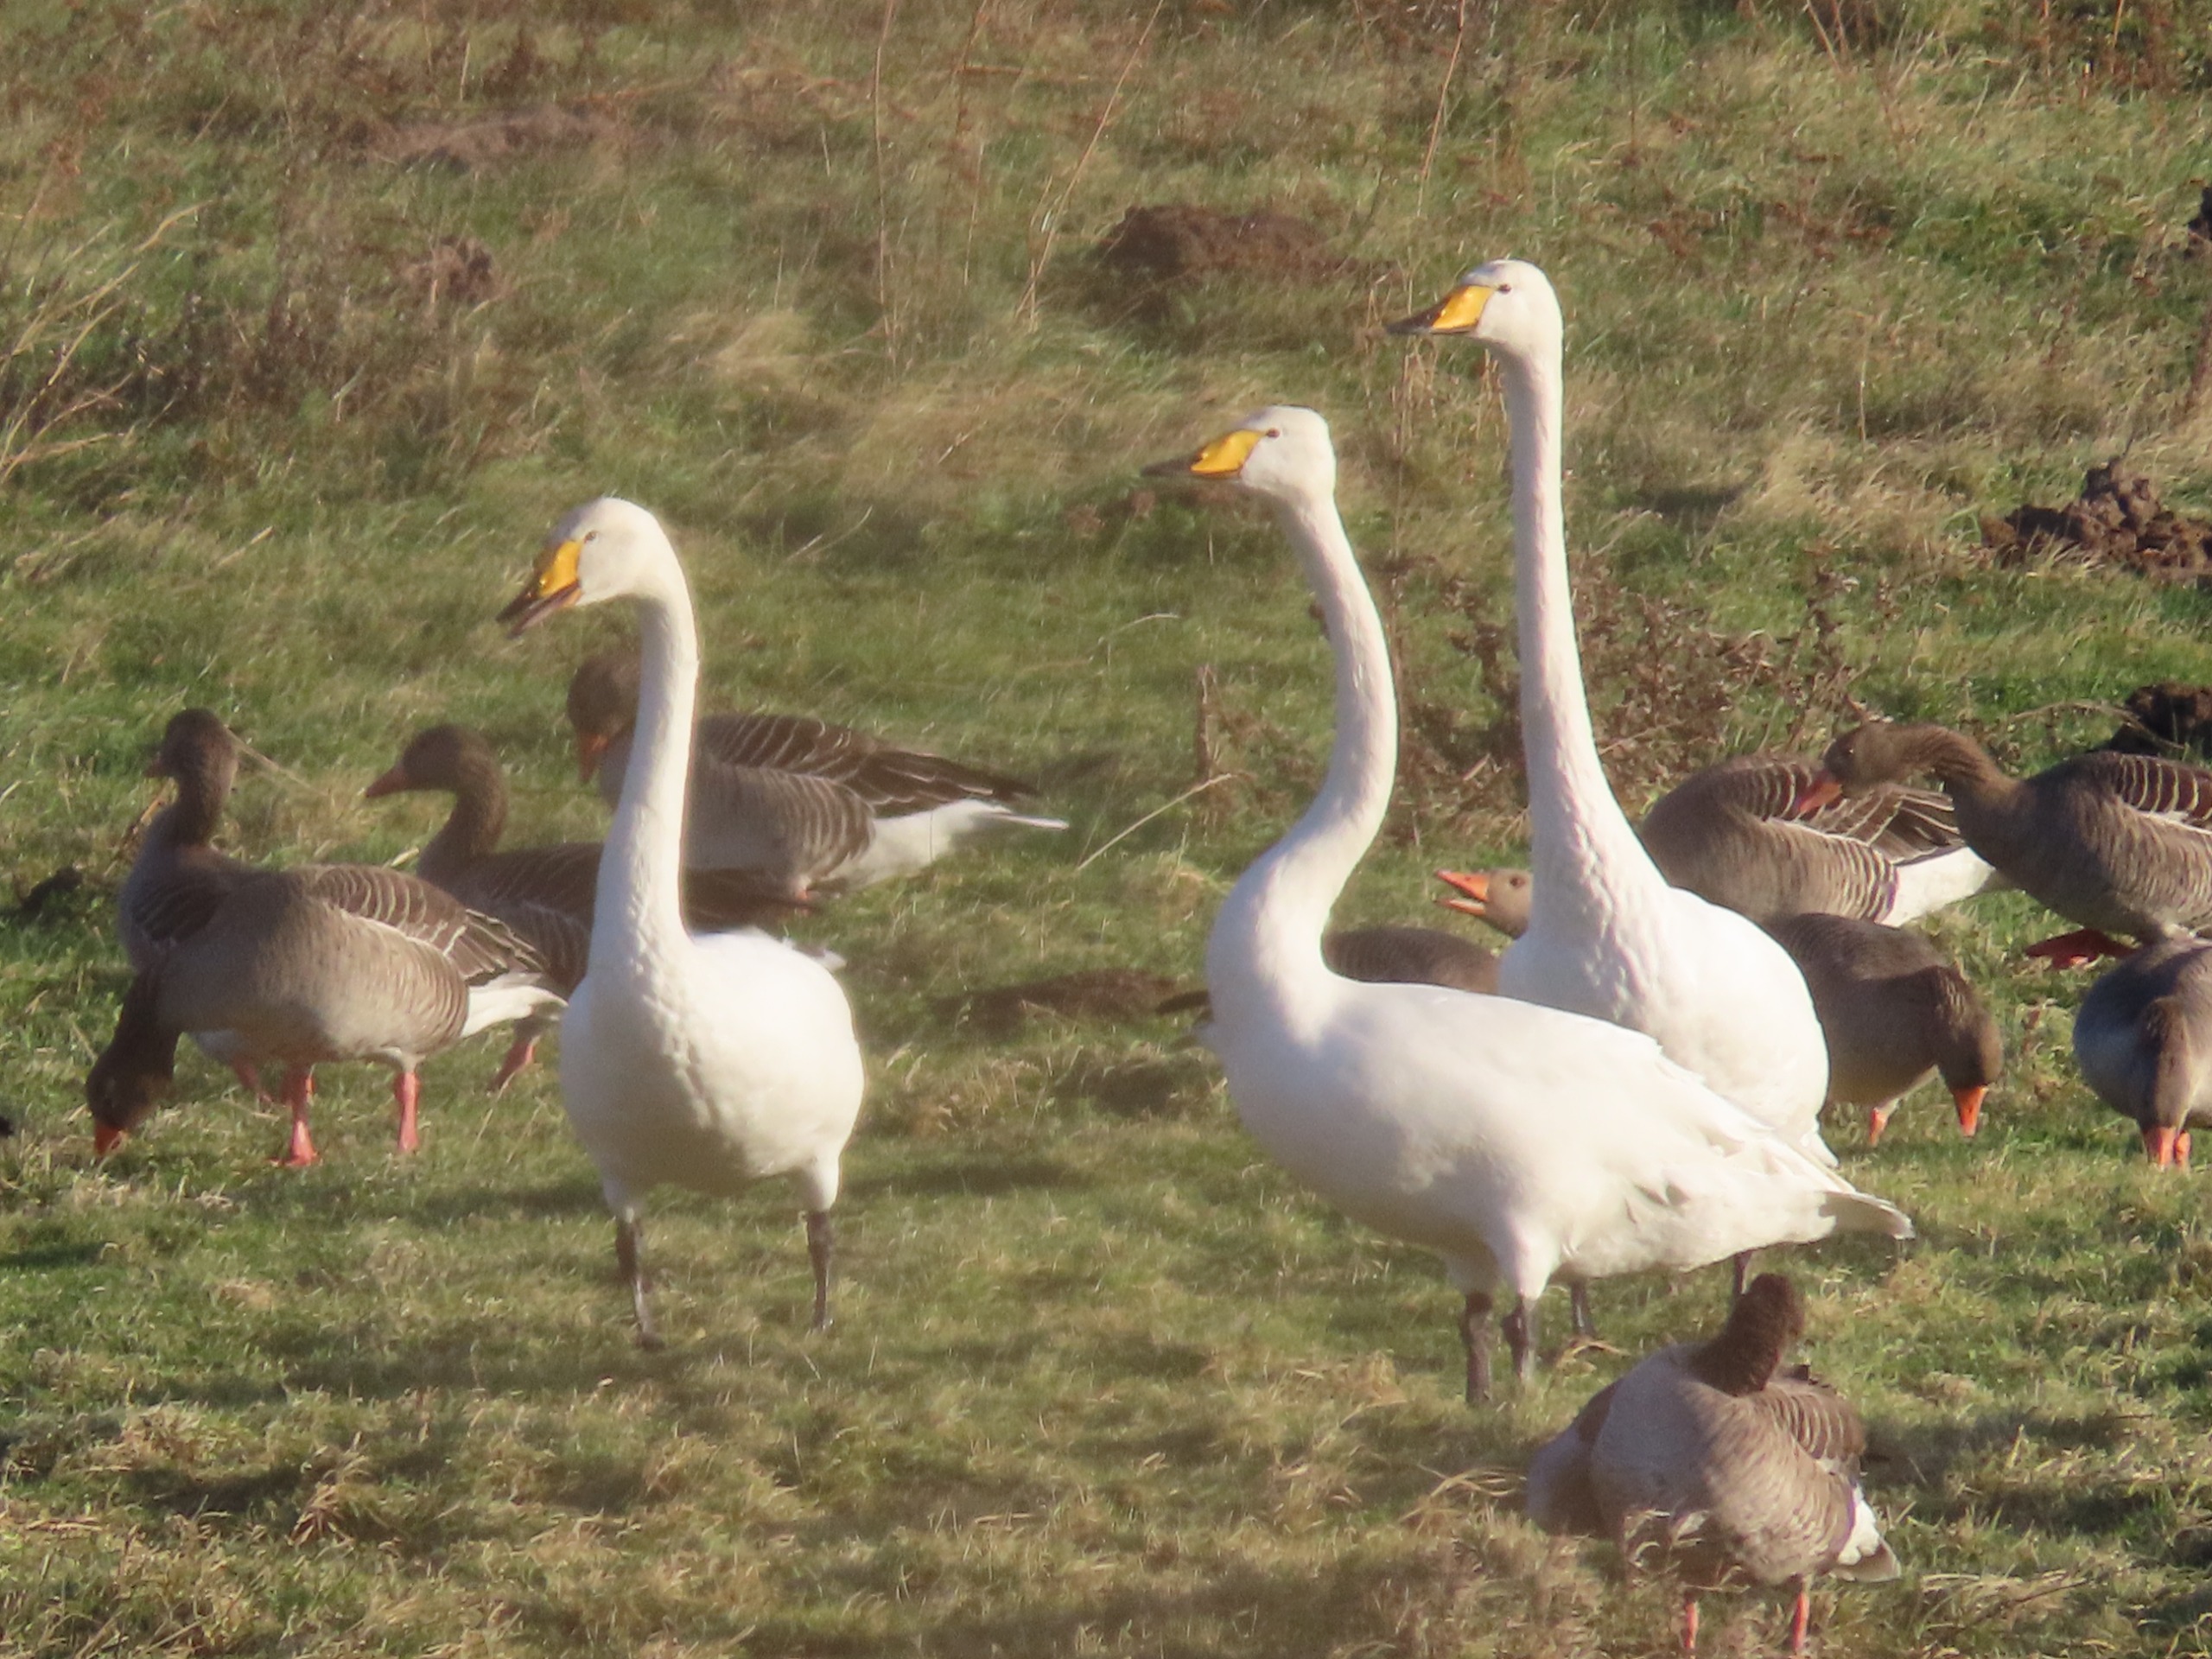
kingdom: Animalia
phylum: Chordata
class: Aves
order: Anseriformes
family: Anatidae
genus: Cygnus
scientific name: Cygnus cygnus
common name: Sangsvane
